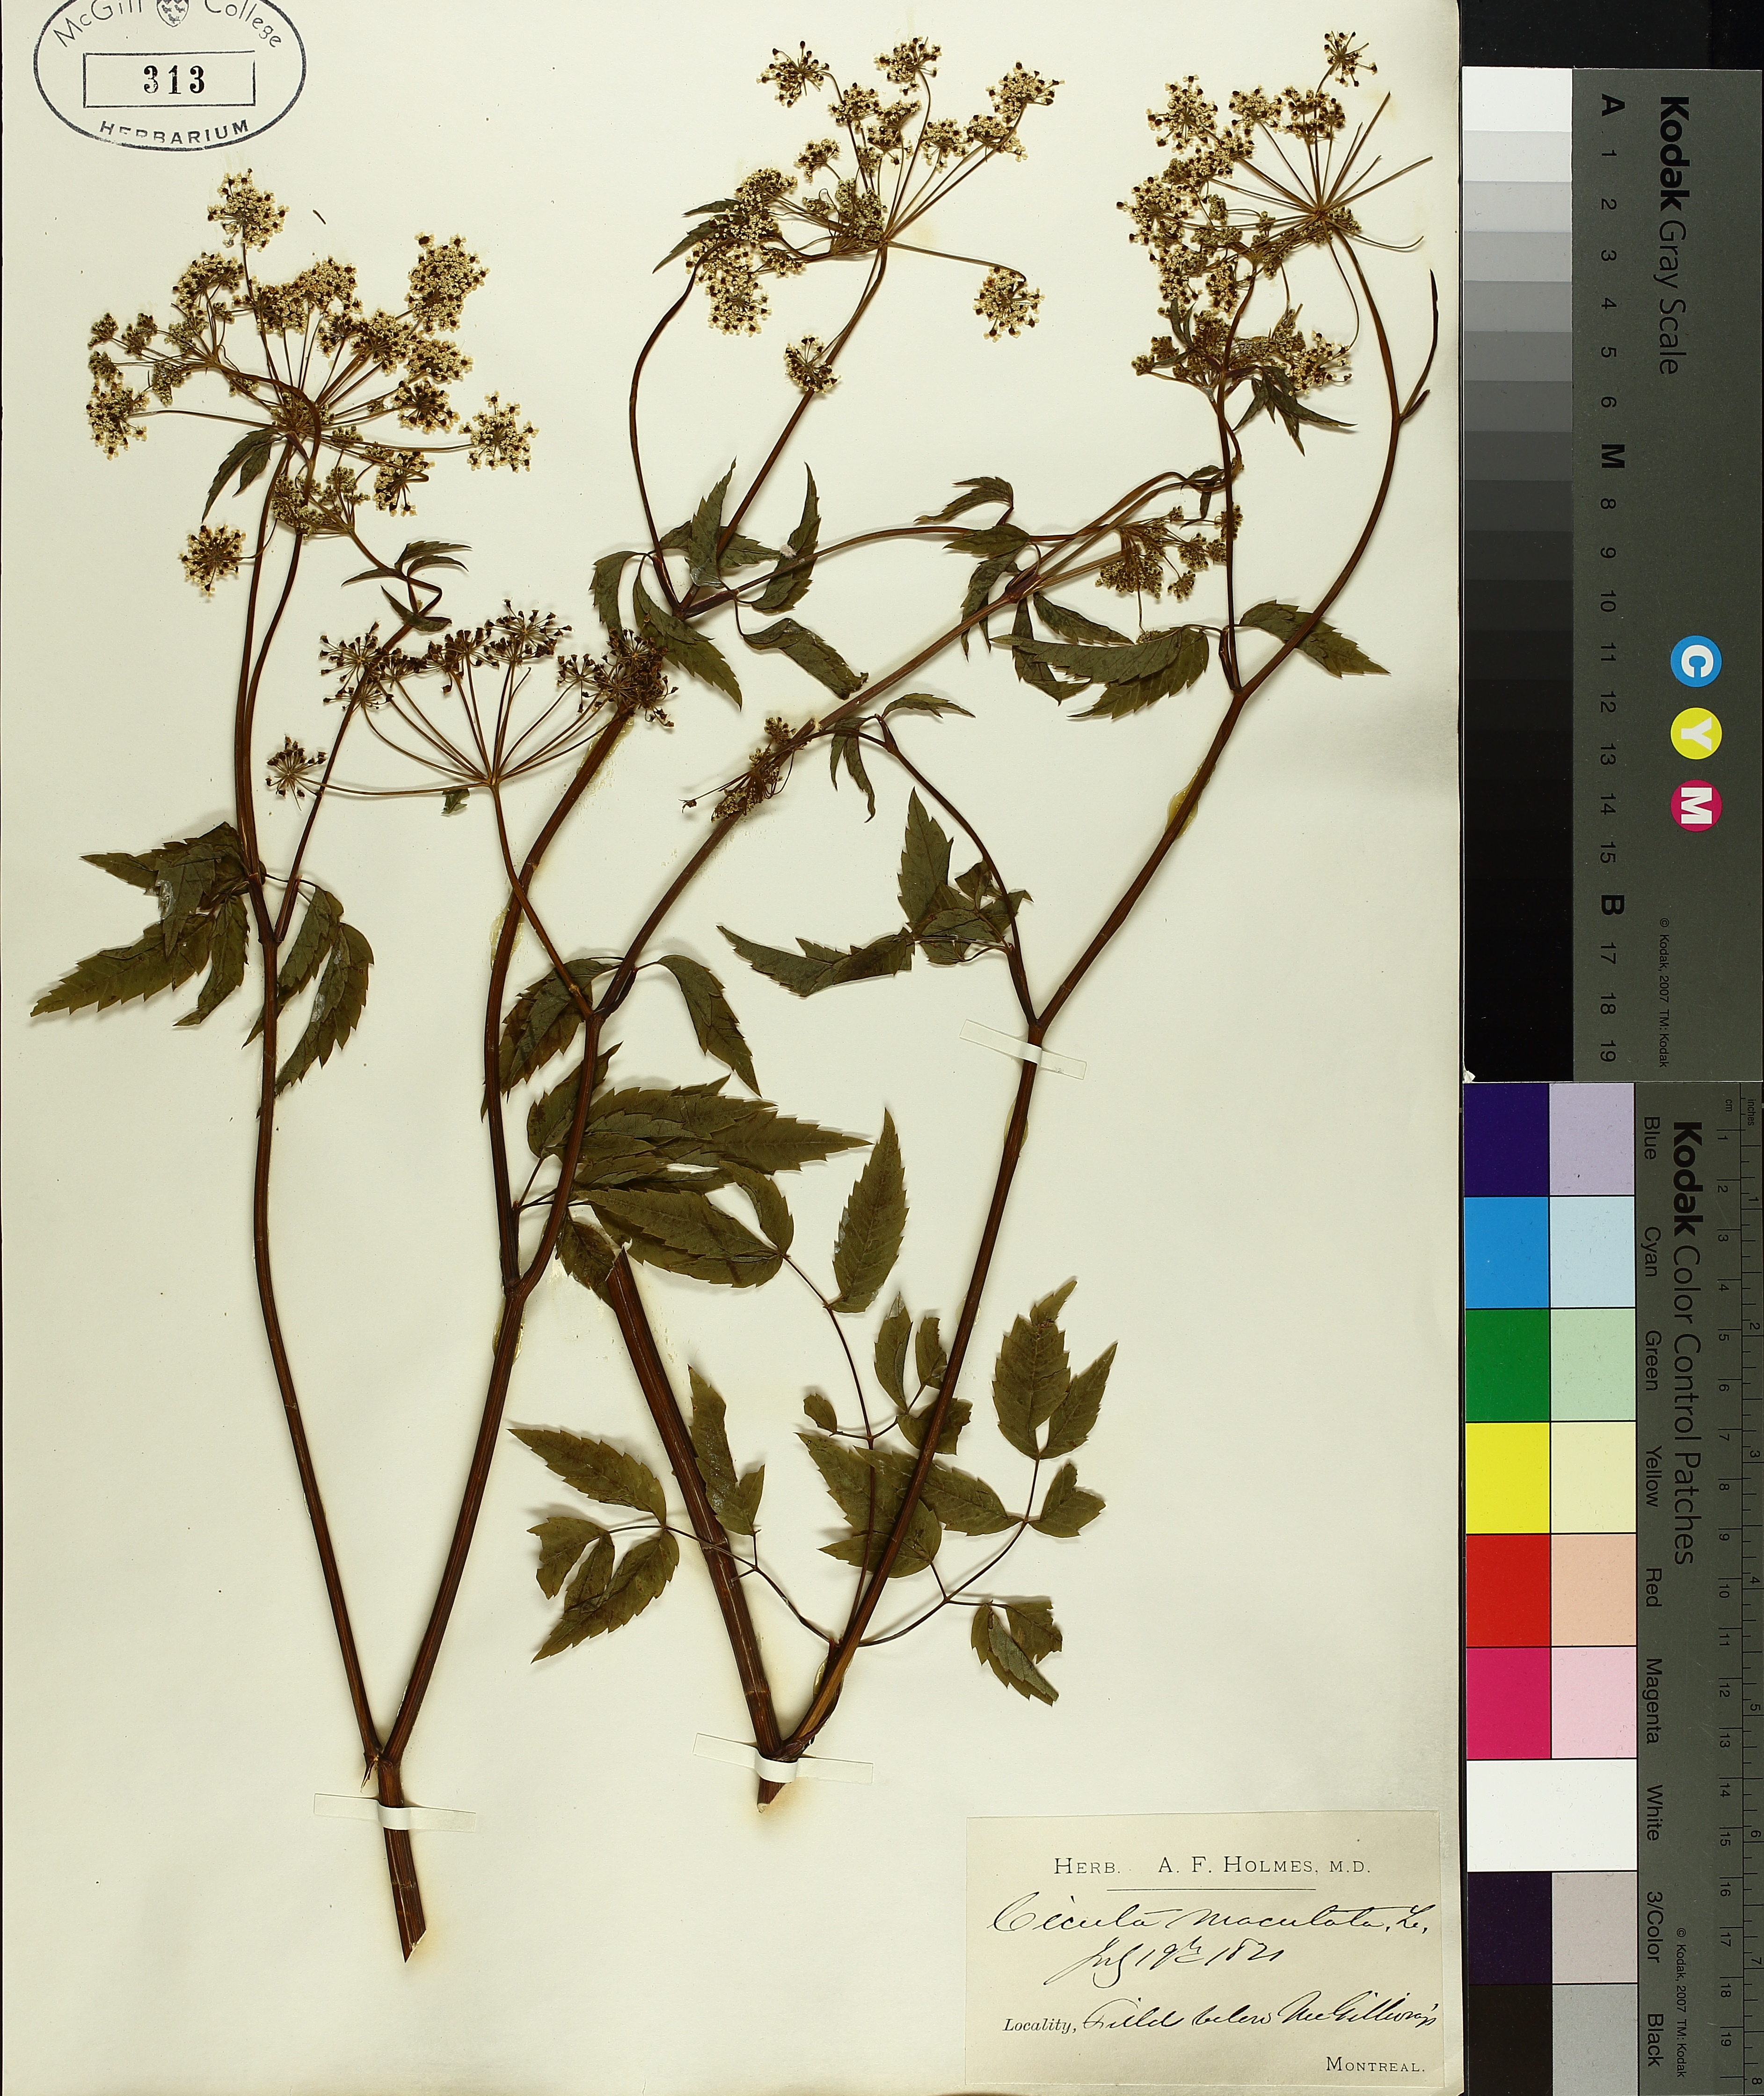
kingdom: Plantae
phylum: Tracheophyta
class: Magnoliopsida
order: Apiales
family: Apiaceae
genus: Cicuta
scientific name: Cicuta maculata
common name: Spotted cowbane
